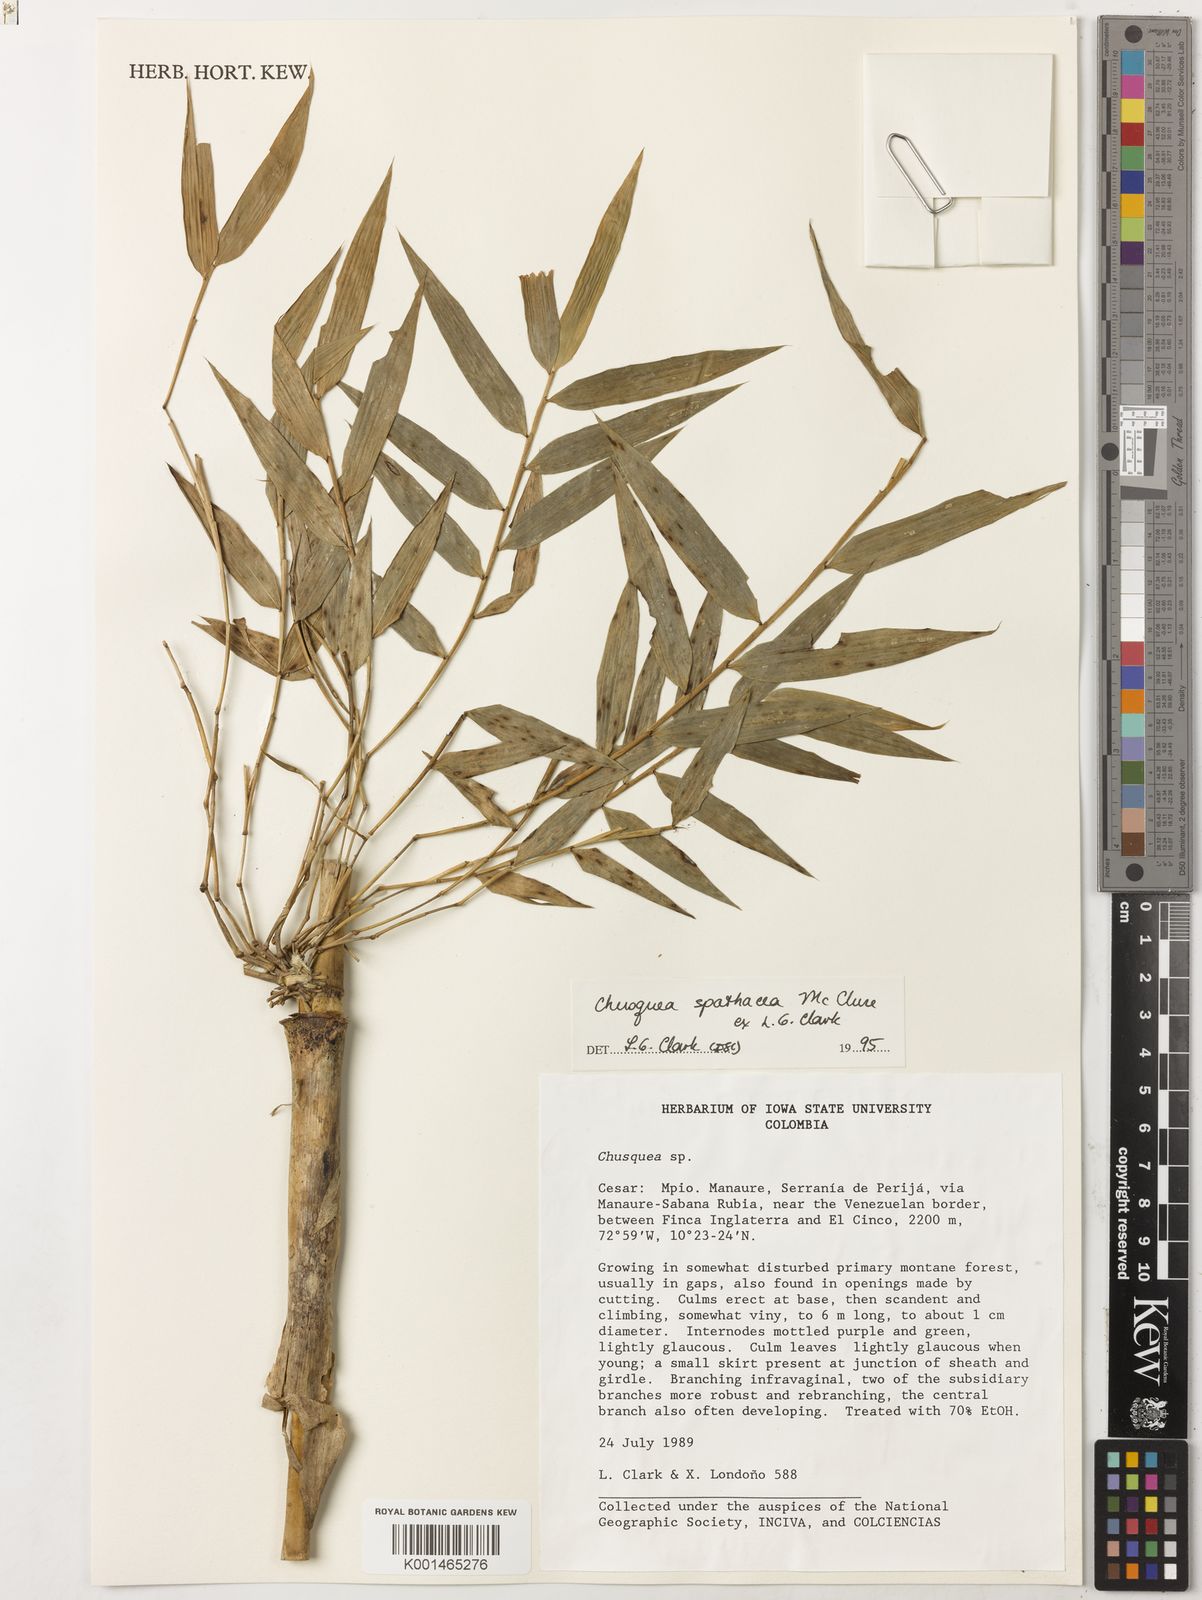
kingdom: Plantae
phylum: Tracheophyta
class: Liliopsida
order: Poales
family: Poaceae
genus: Chusquea
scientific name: Chusquea spathacea
